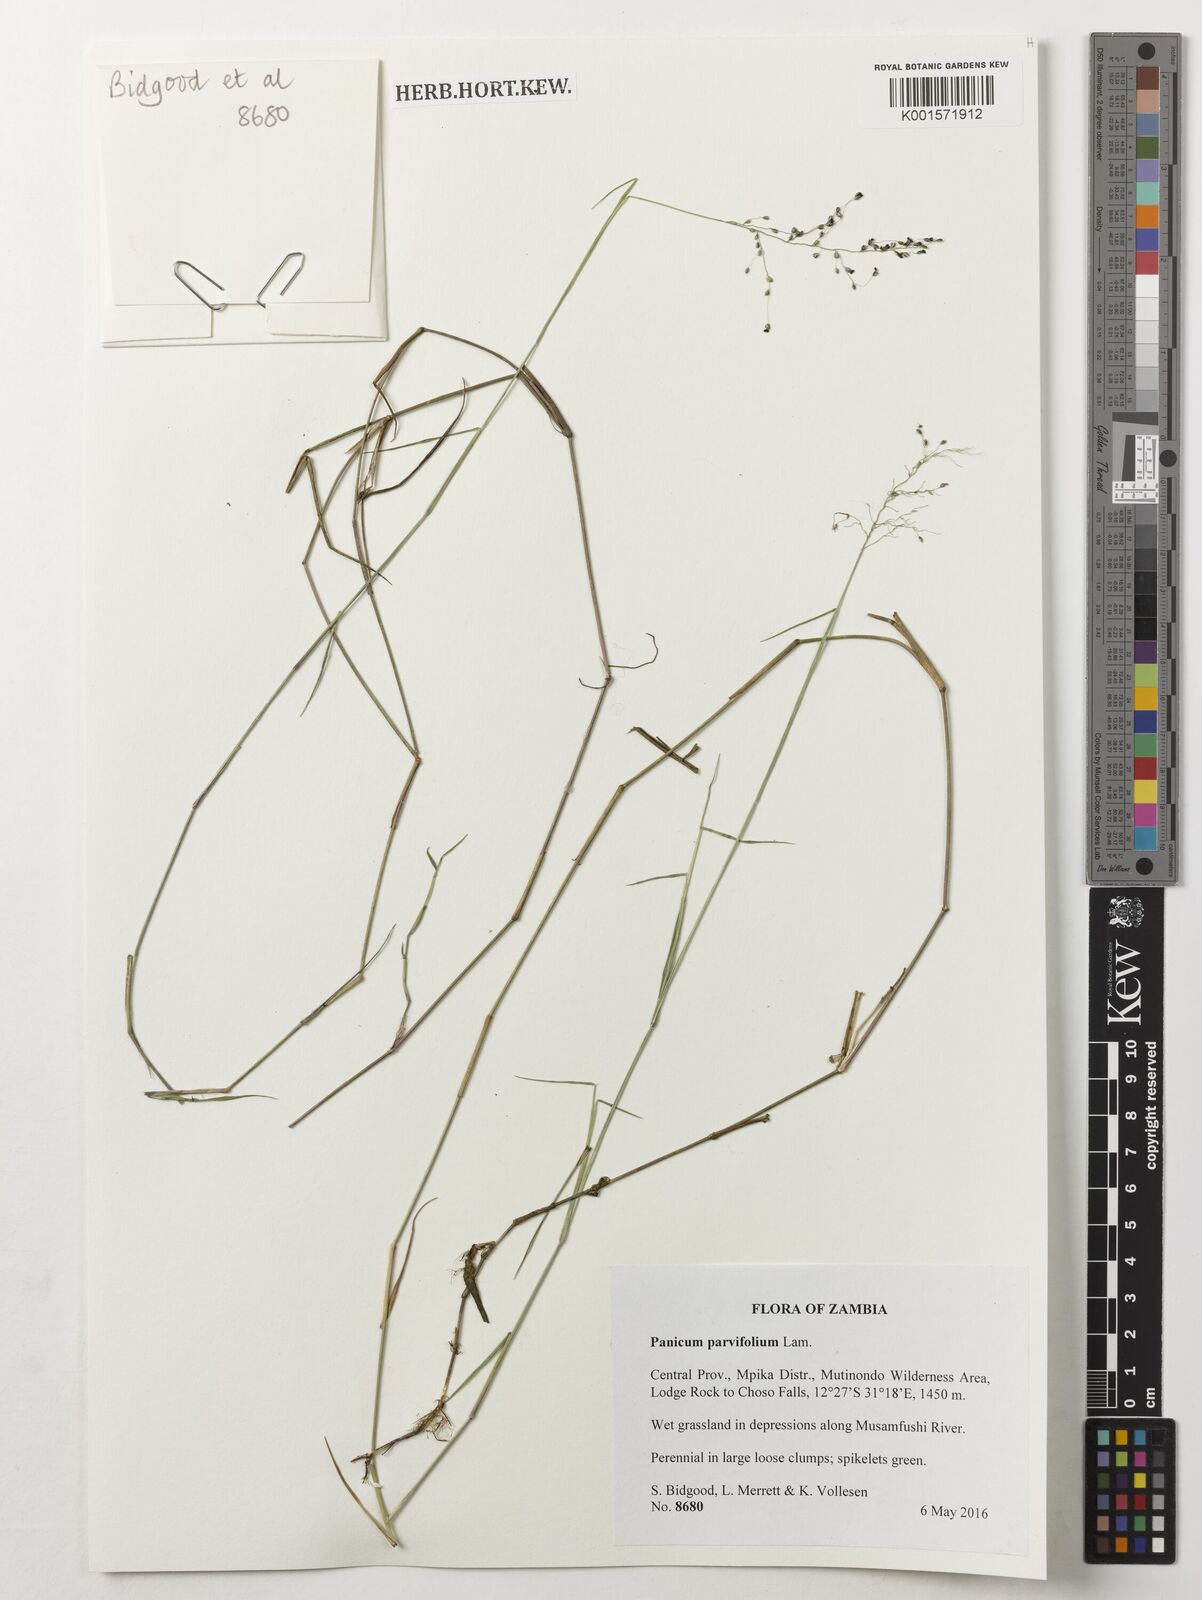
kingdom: Plantae
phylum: Tracheophyta
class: Liliopsida
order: Poales
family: Poaceae
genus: Trichanthecium
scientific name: Trichanthecium parvifolium
